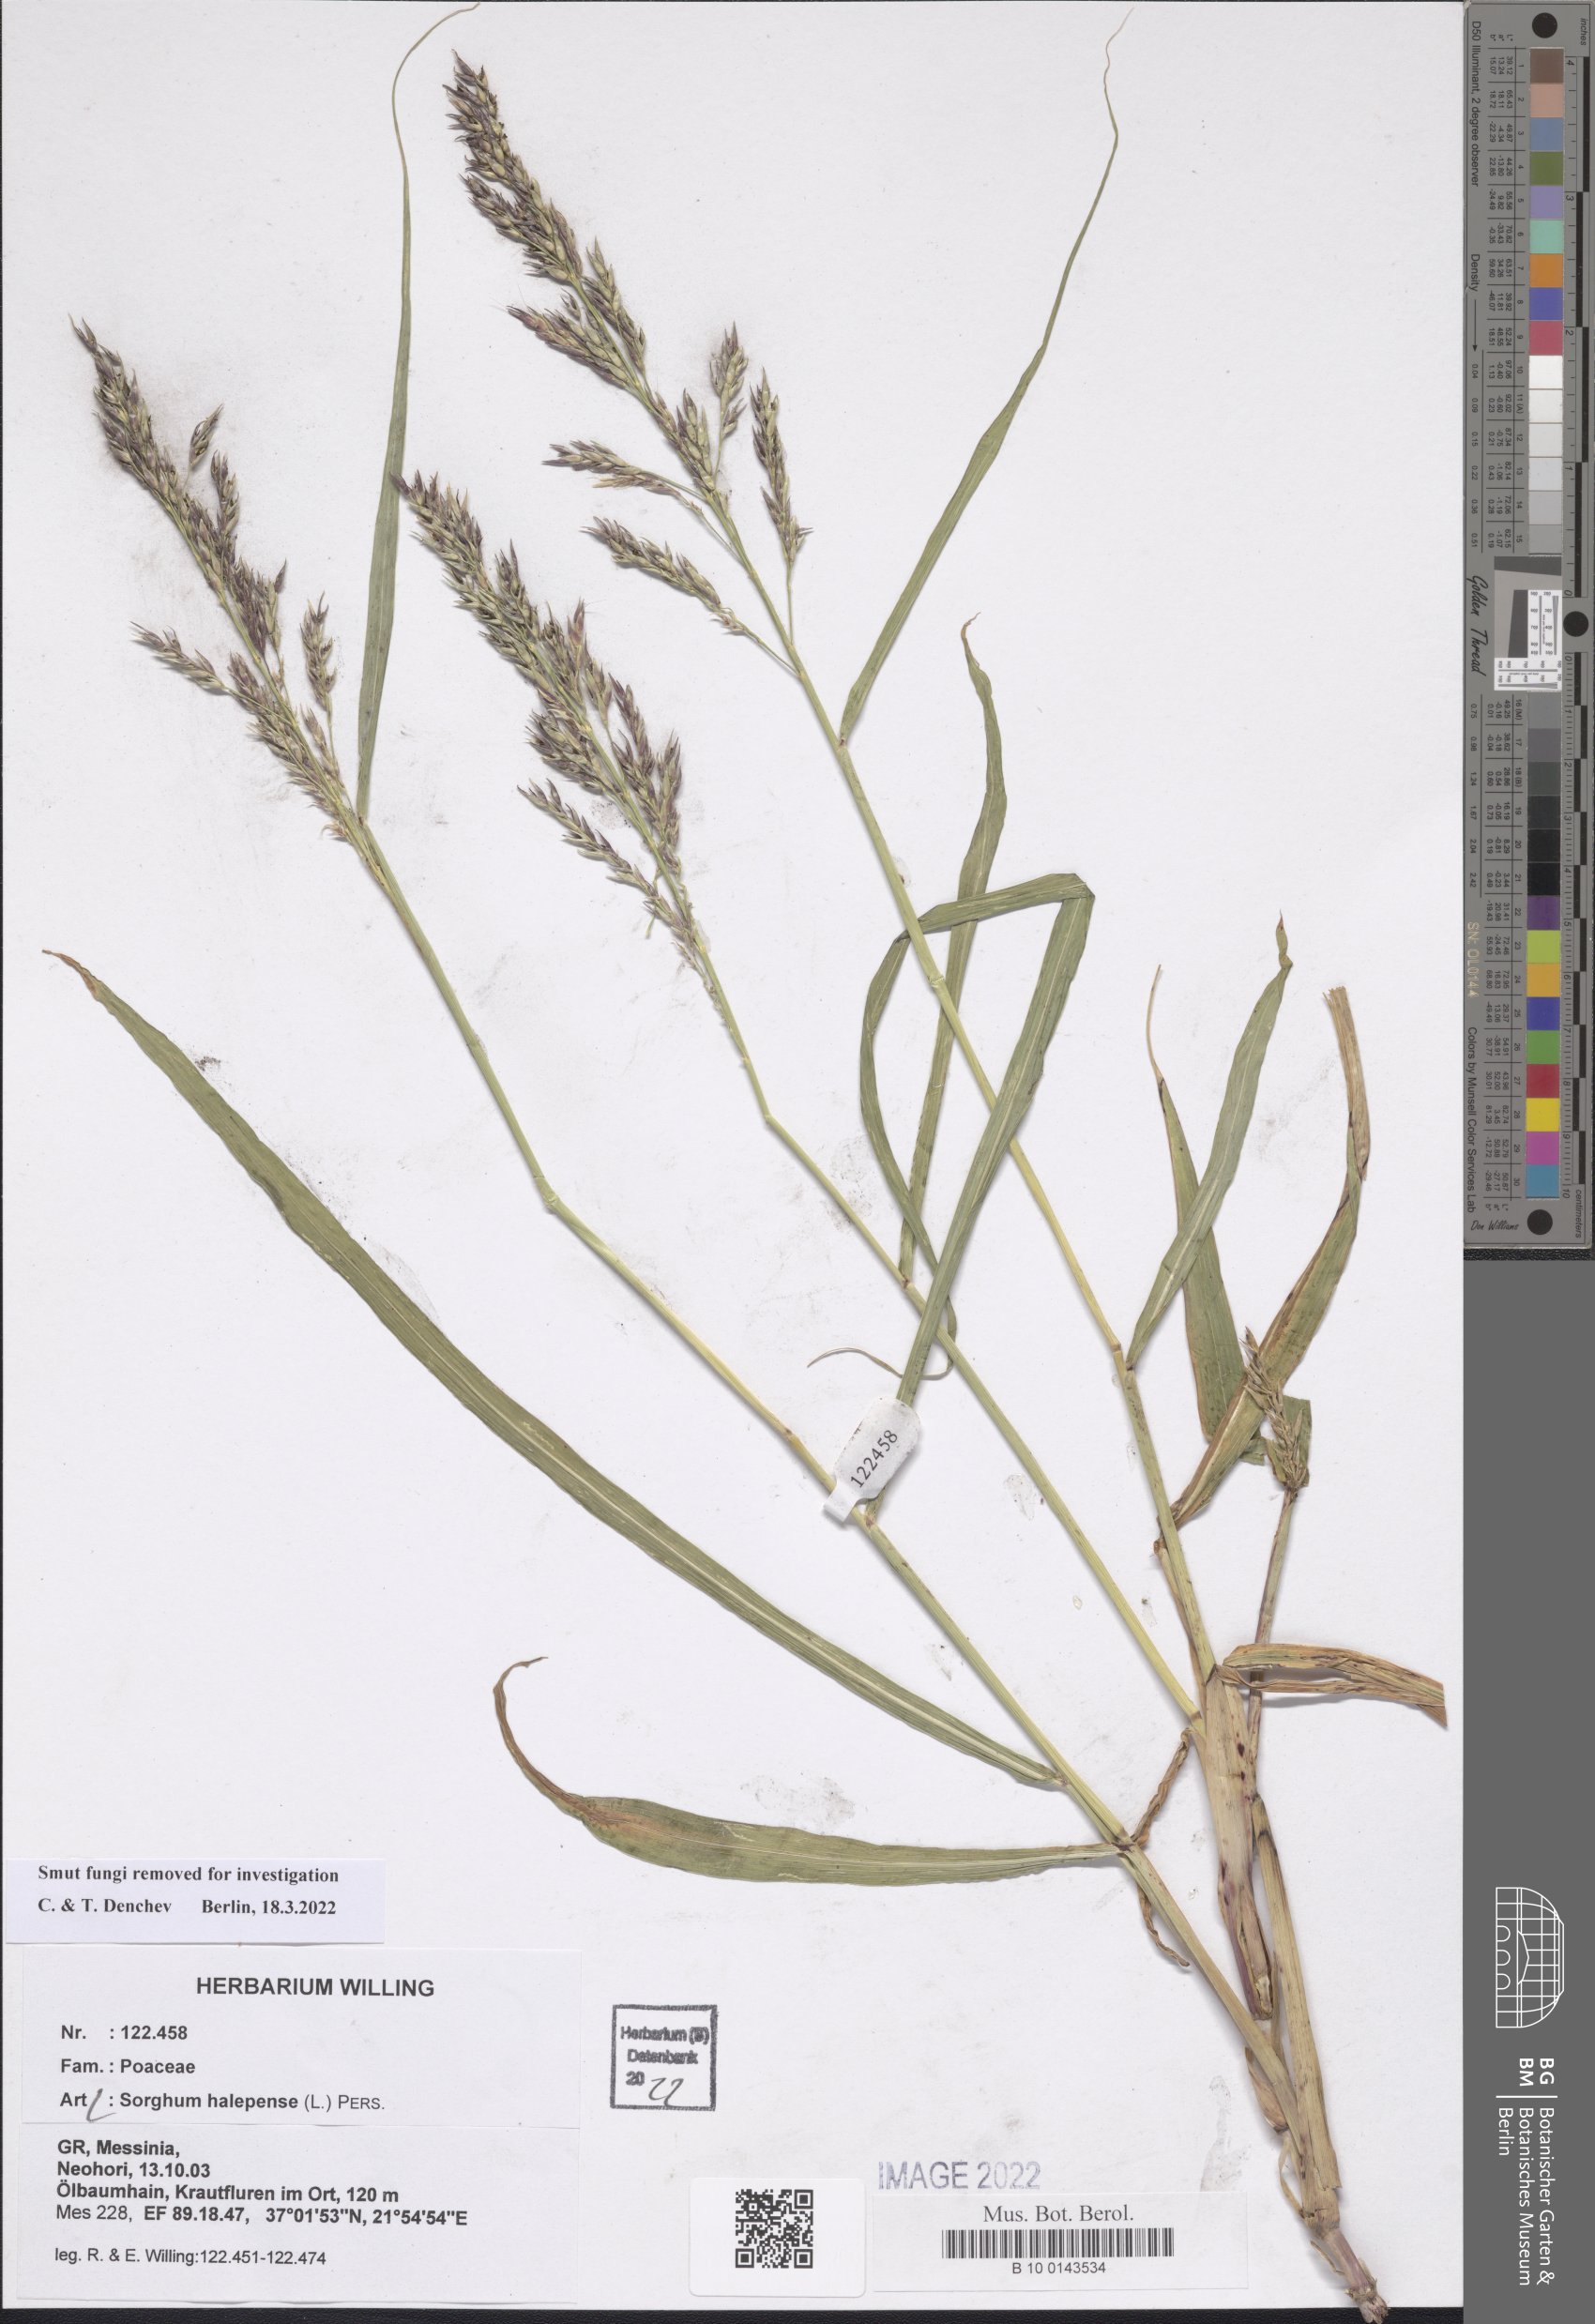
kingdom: Plantae
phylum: Tracheophyta
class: Liliopsida
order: Poales
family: Poaceae
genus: Sorghum
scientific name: Sorghum halepense
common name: Johnson-grass
